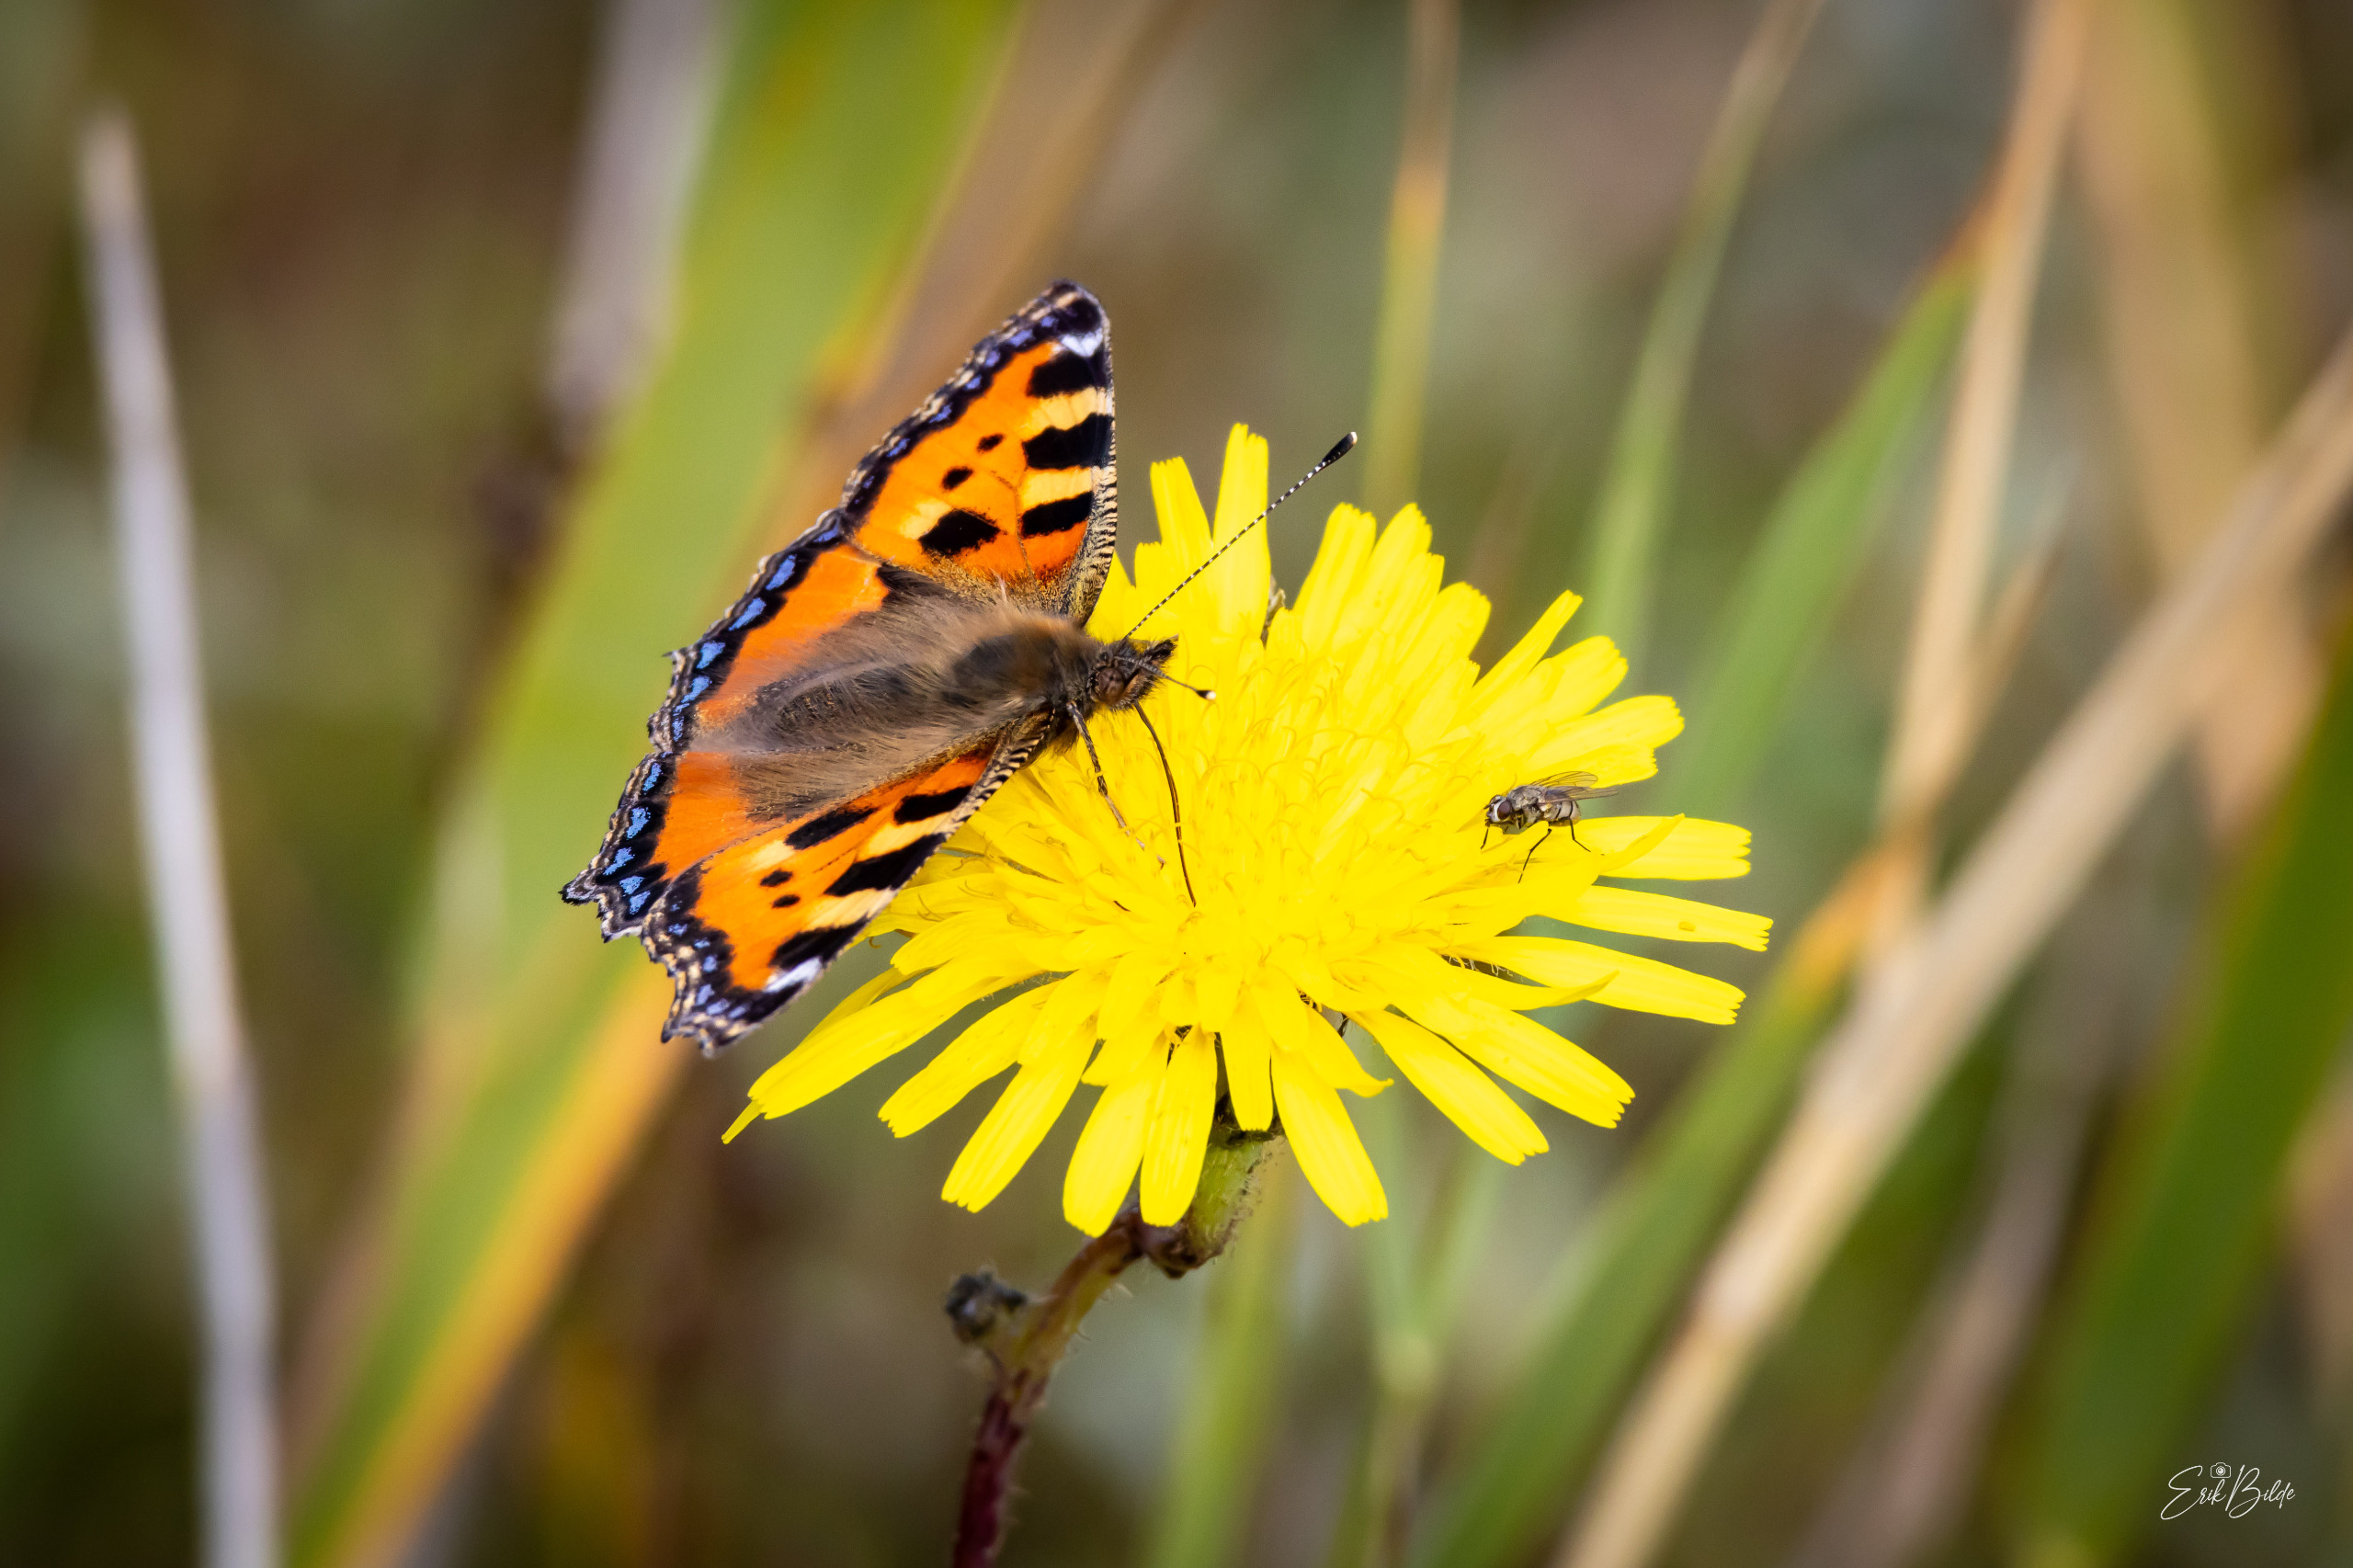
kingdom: Animalia
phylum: Arthropoda
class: Insecta
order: Lepidoptera
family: Nymphalidae
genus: Aglais
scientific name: Aglais urticae
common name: Nældens takvinge
